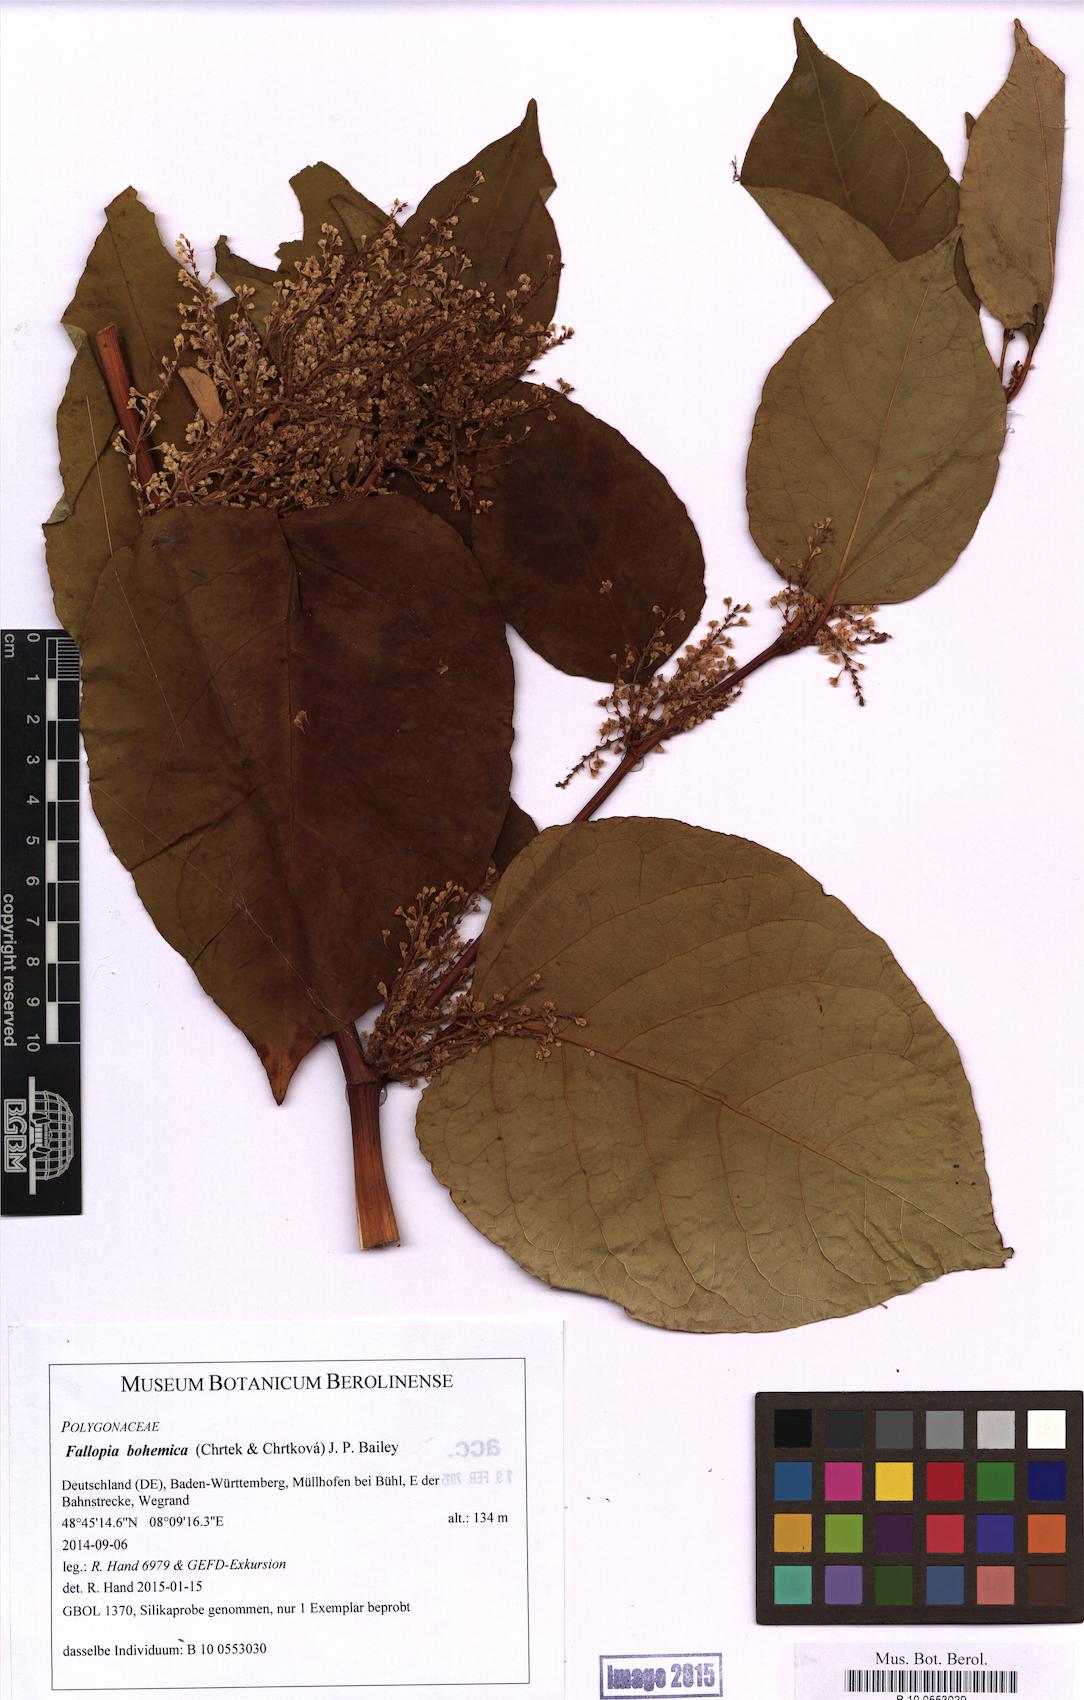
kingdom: Plantae
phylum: Tracheophyta
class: Magnoliopsida
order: Caryophyllales
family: Polygonaceae
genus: Reynoutria
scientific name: Reynoutria bohemica
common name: Bohemian knotweed
